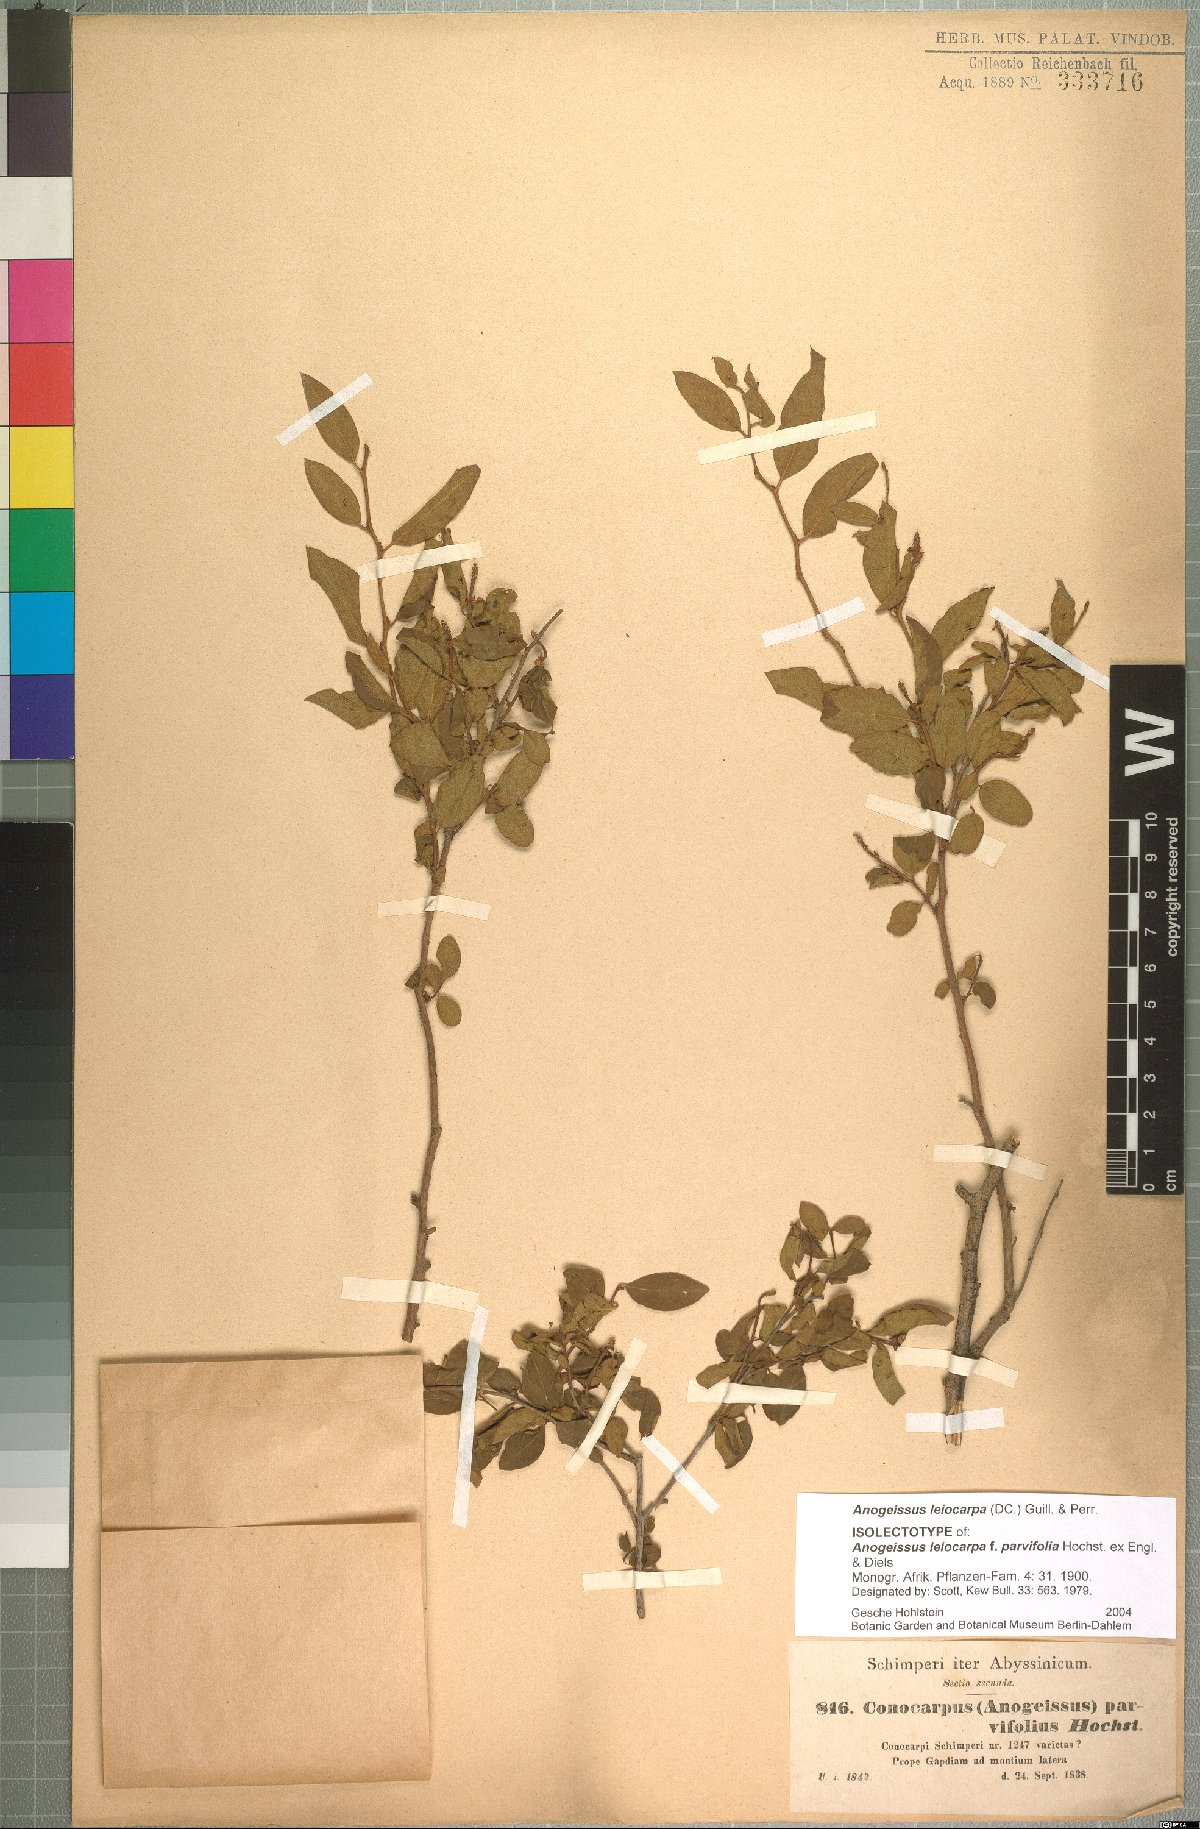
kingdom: Plantae
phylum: Tracheophyta
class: Magnoliopsida
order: Myrtales
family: Combretaceae
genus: Terminalia
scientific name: Terminalia leiocarpa
